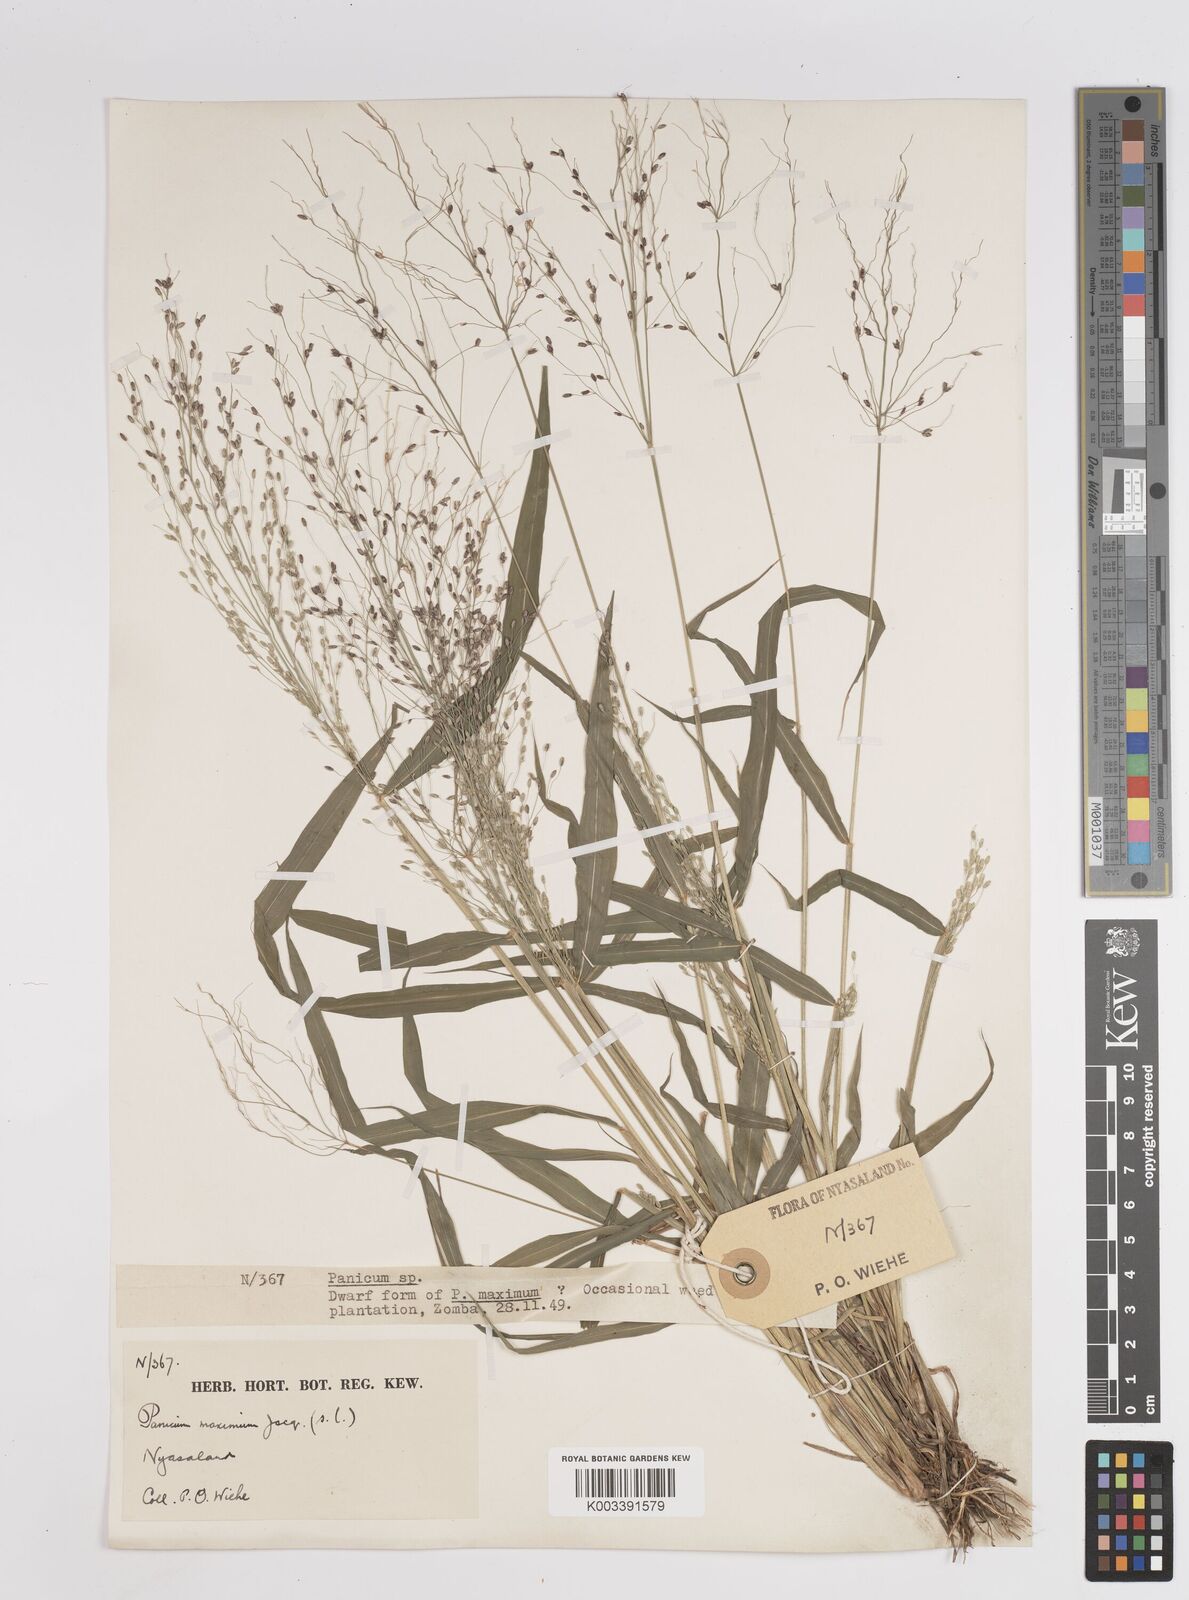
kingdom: Plantae
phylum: Tracheophyta
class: Liliopsida
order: Poales
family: Poaceae
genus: Megathyrsus
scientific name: Megathyrsus maximus
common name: Guineagrass
